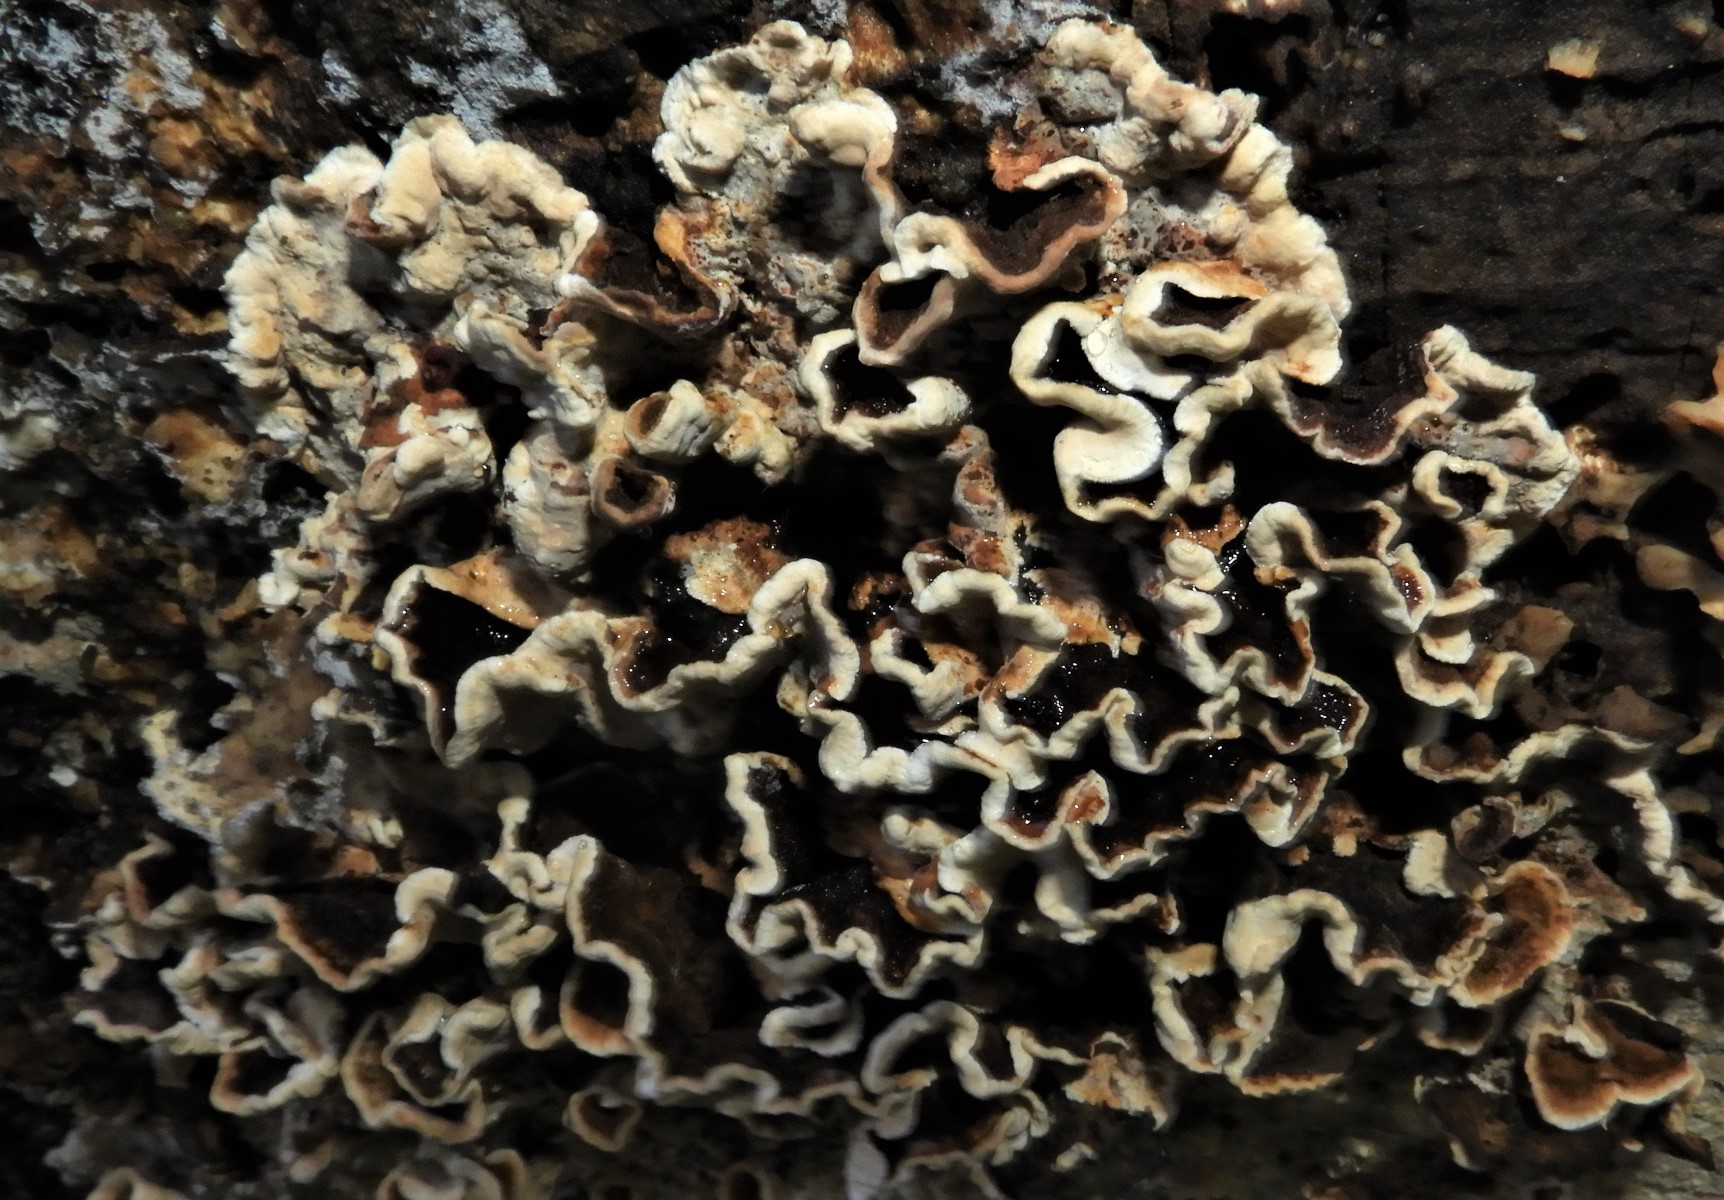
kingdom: Fungi
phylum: Basidiomycota
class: Agaricomycetes
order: Polyporales
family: Phanerochaetaceae
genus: Bjerkandera
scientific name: Bjerkandera adusta
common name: sveden sodporesvamp
